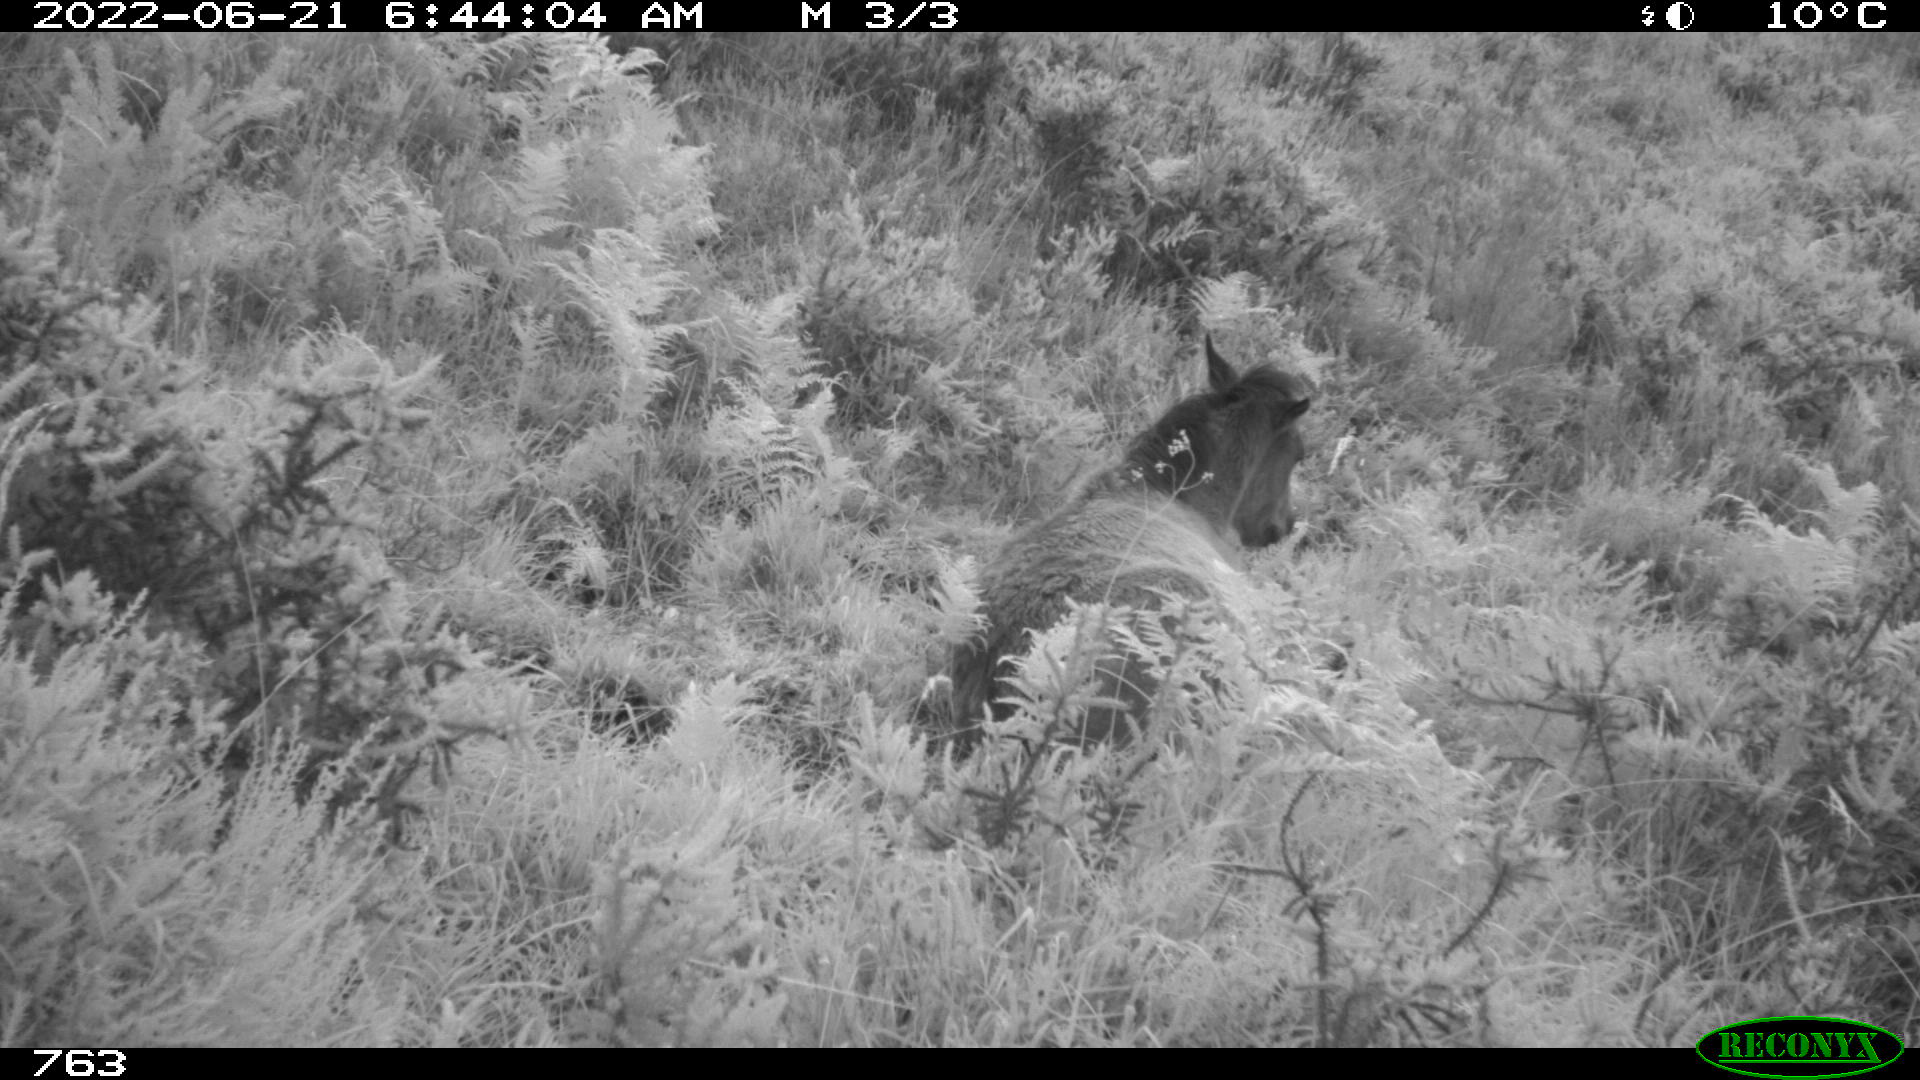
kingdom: Animalia
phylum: Chordata
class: Mammalia
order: Perissodactyla
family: Equidae
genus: Equus
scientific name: Equus caballus
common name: Horse
